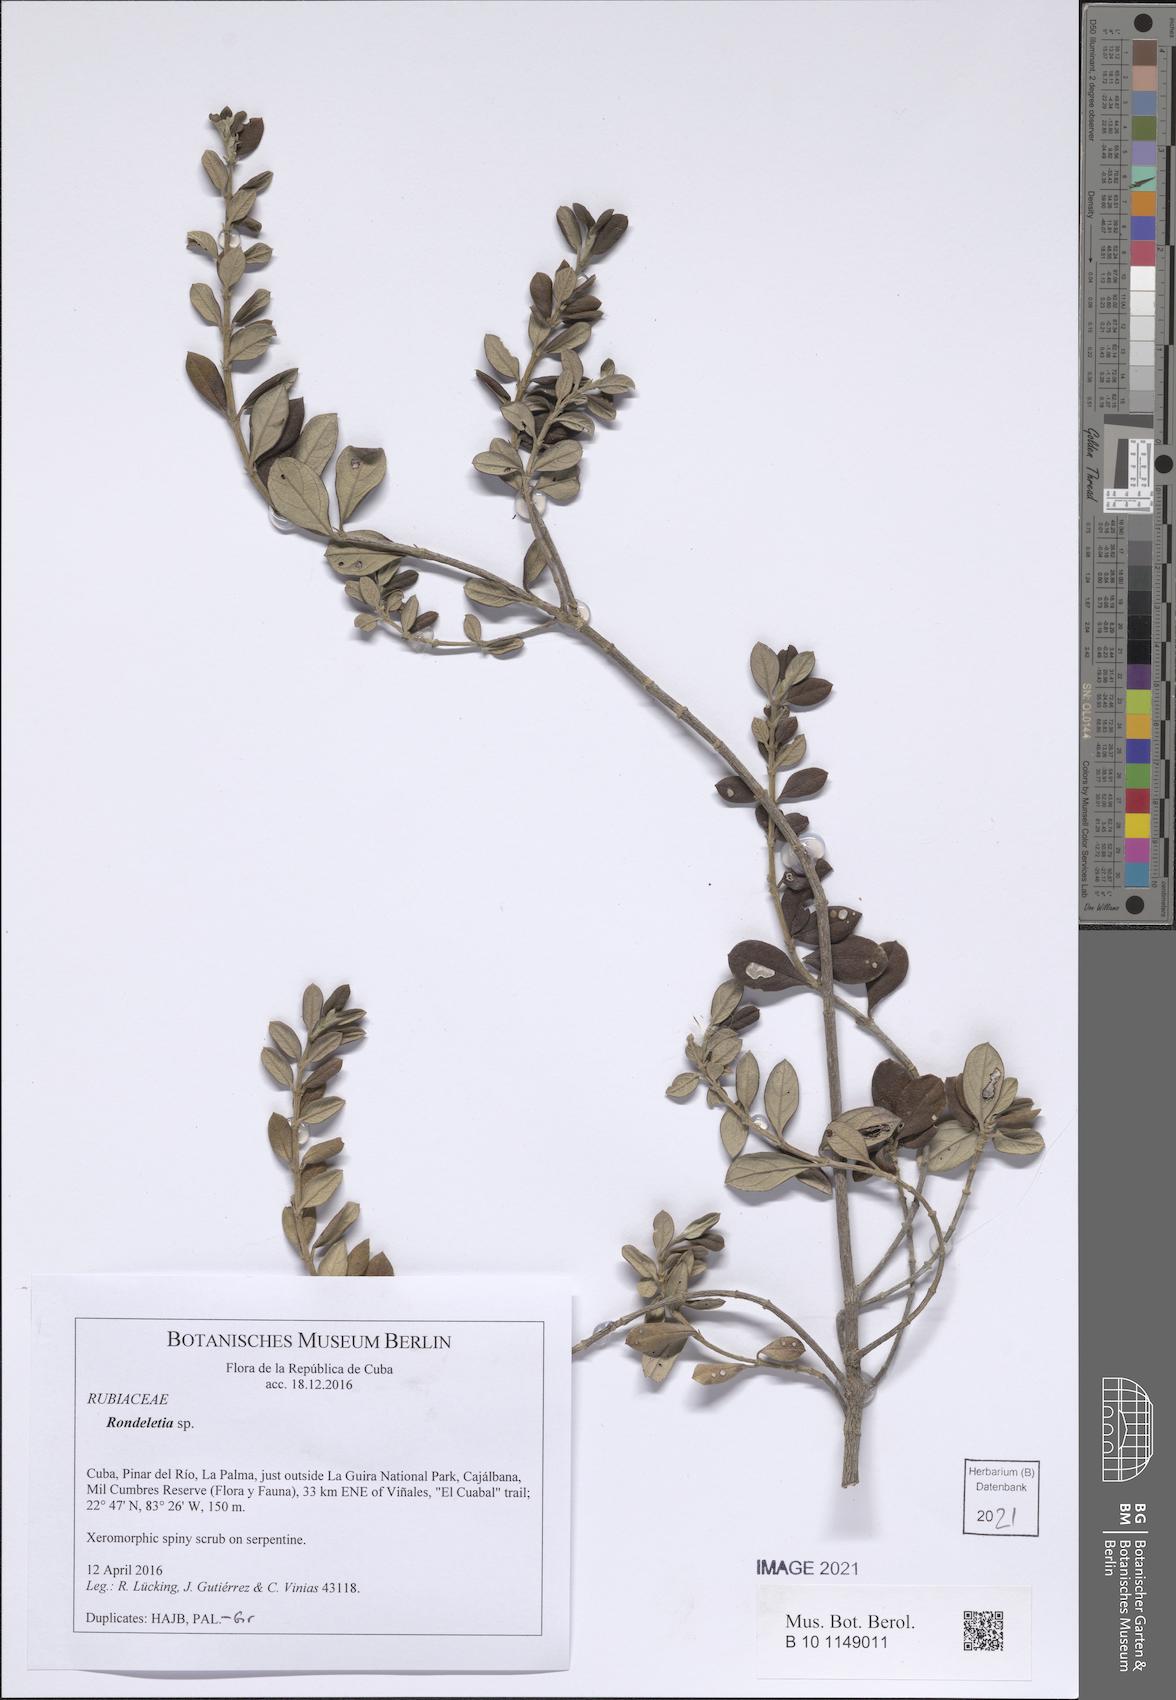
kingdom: Plantae
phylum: Tracheophyta
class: Magnoliopsida
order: Gentianales
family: Rubiaceae
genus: Rondeletia
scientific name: Rondeletia
